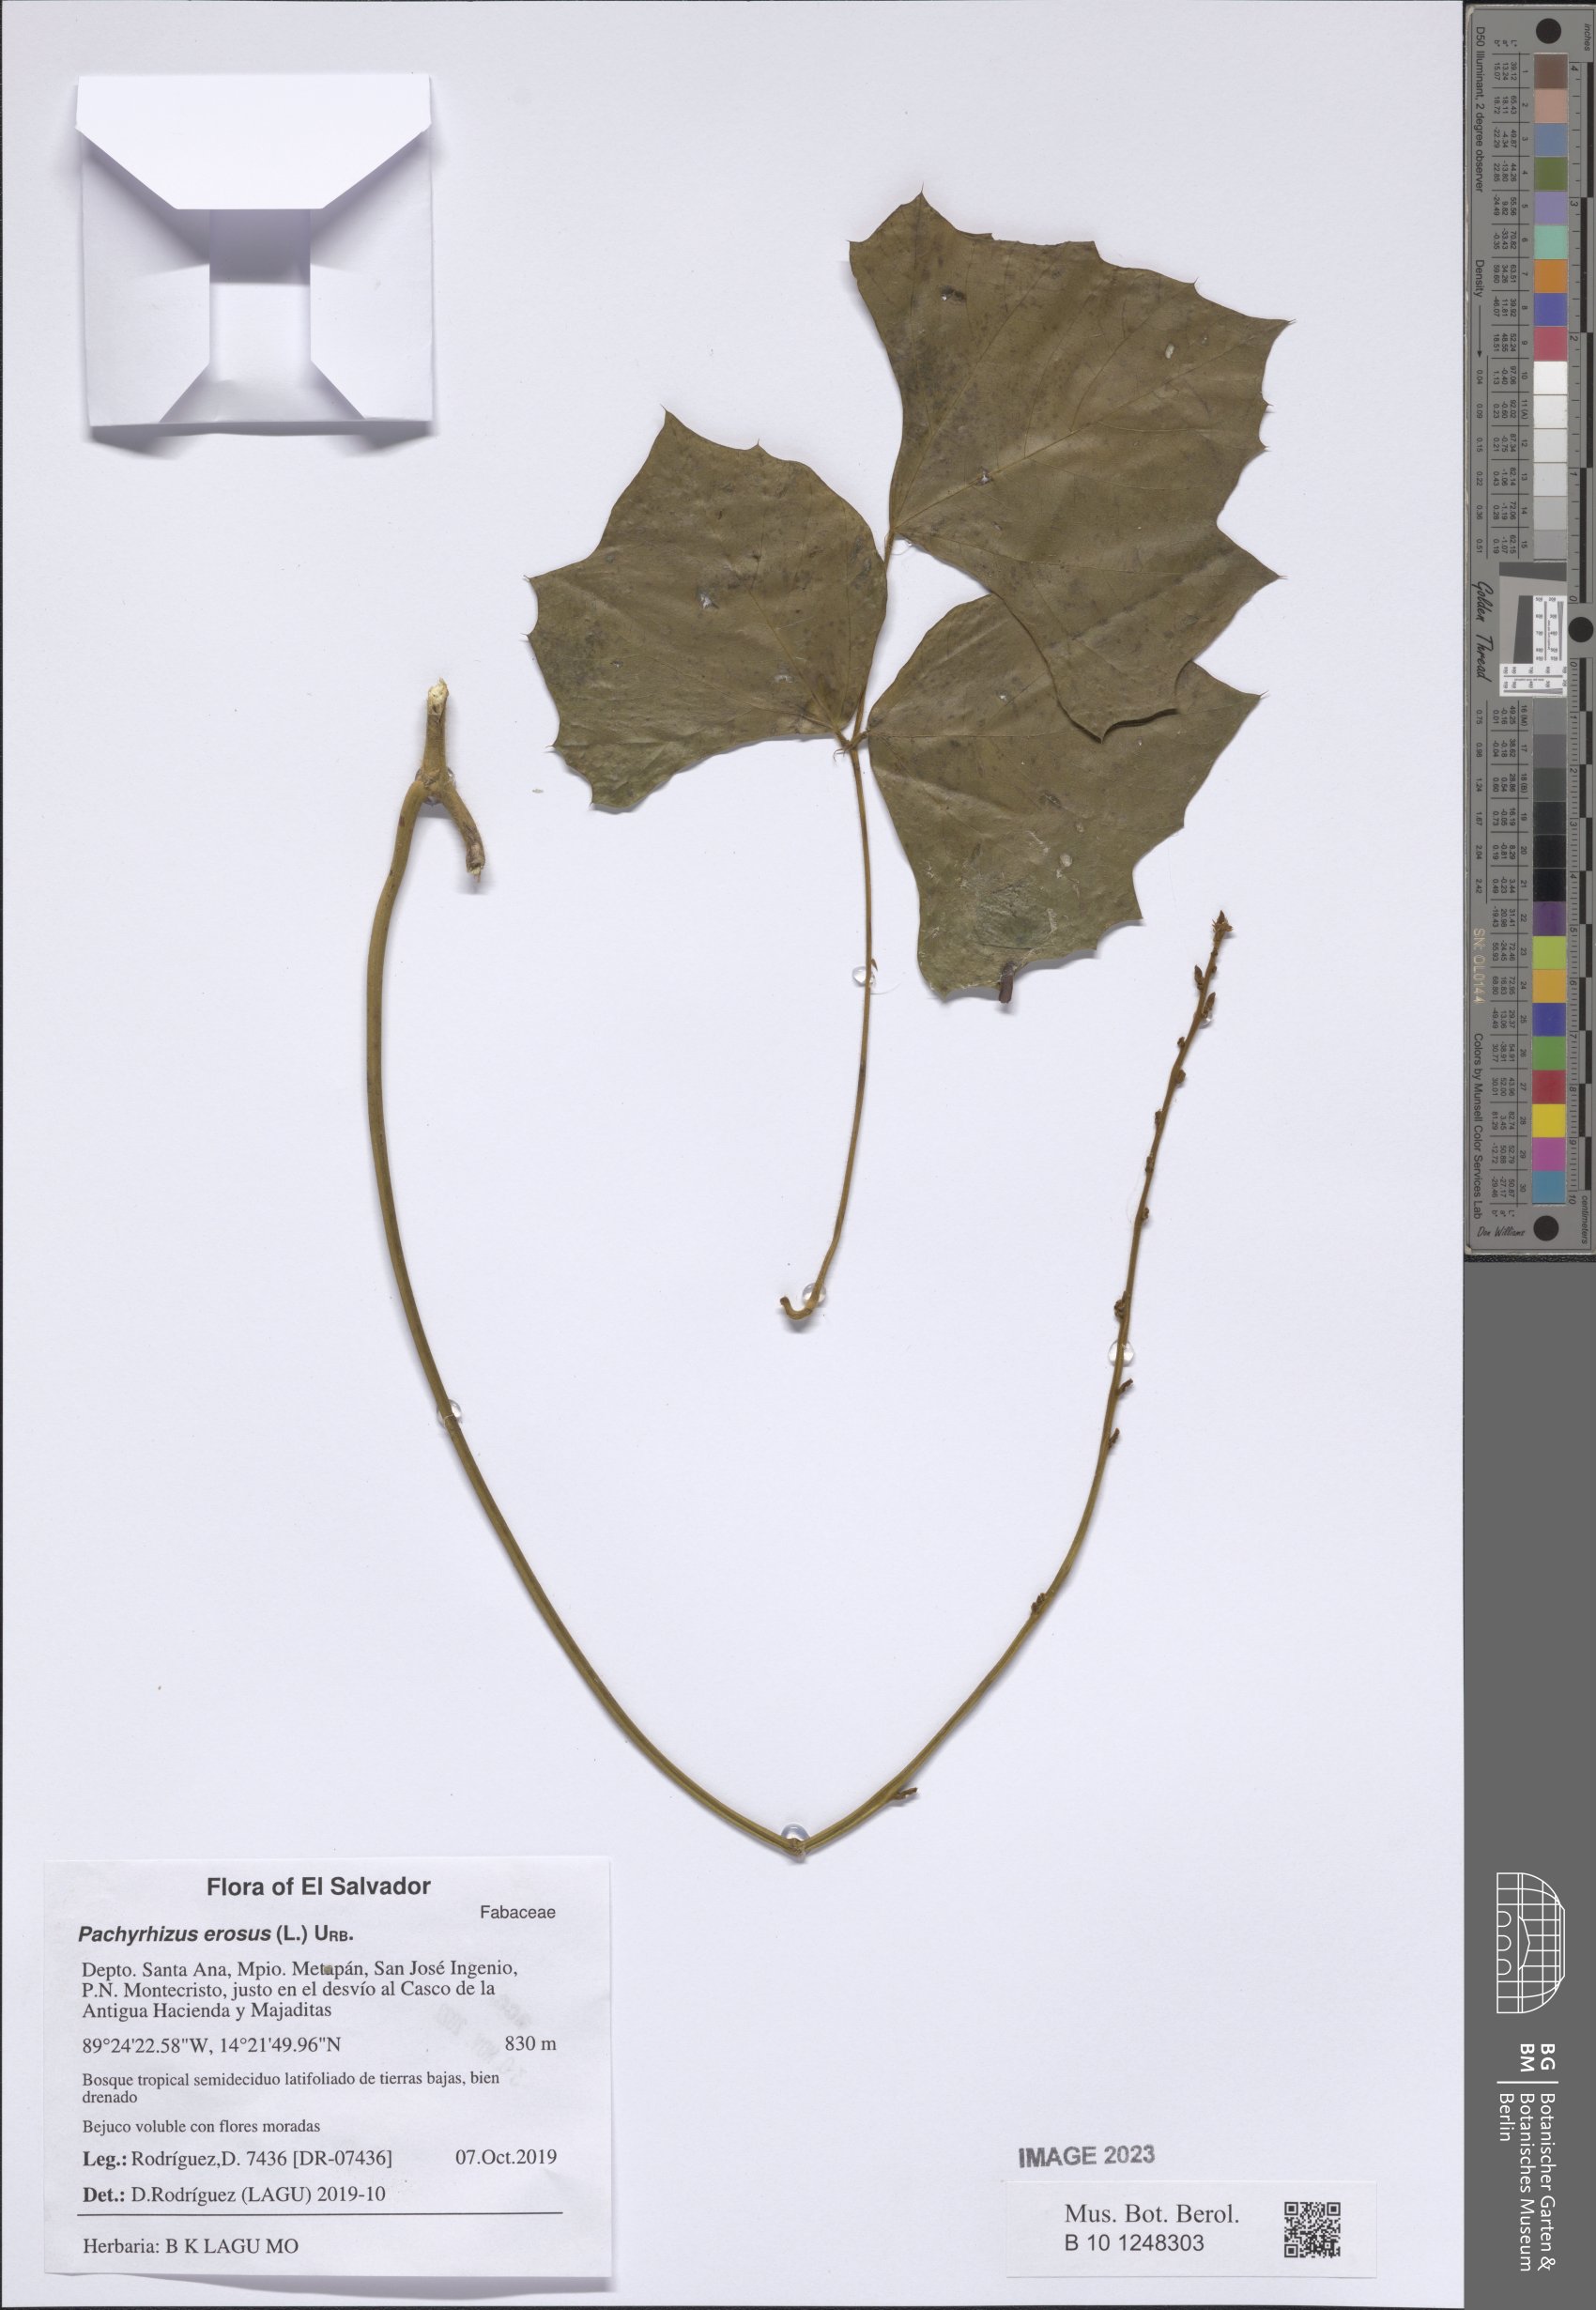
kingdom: Plantae
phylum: Tracheophyta
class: Magnoliopsida
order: Fabales
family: Fabaceae
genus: Pachyrhizus
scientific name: Pachyrhizus erosus
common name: Yam bean
